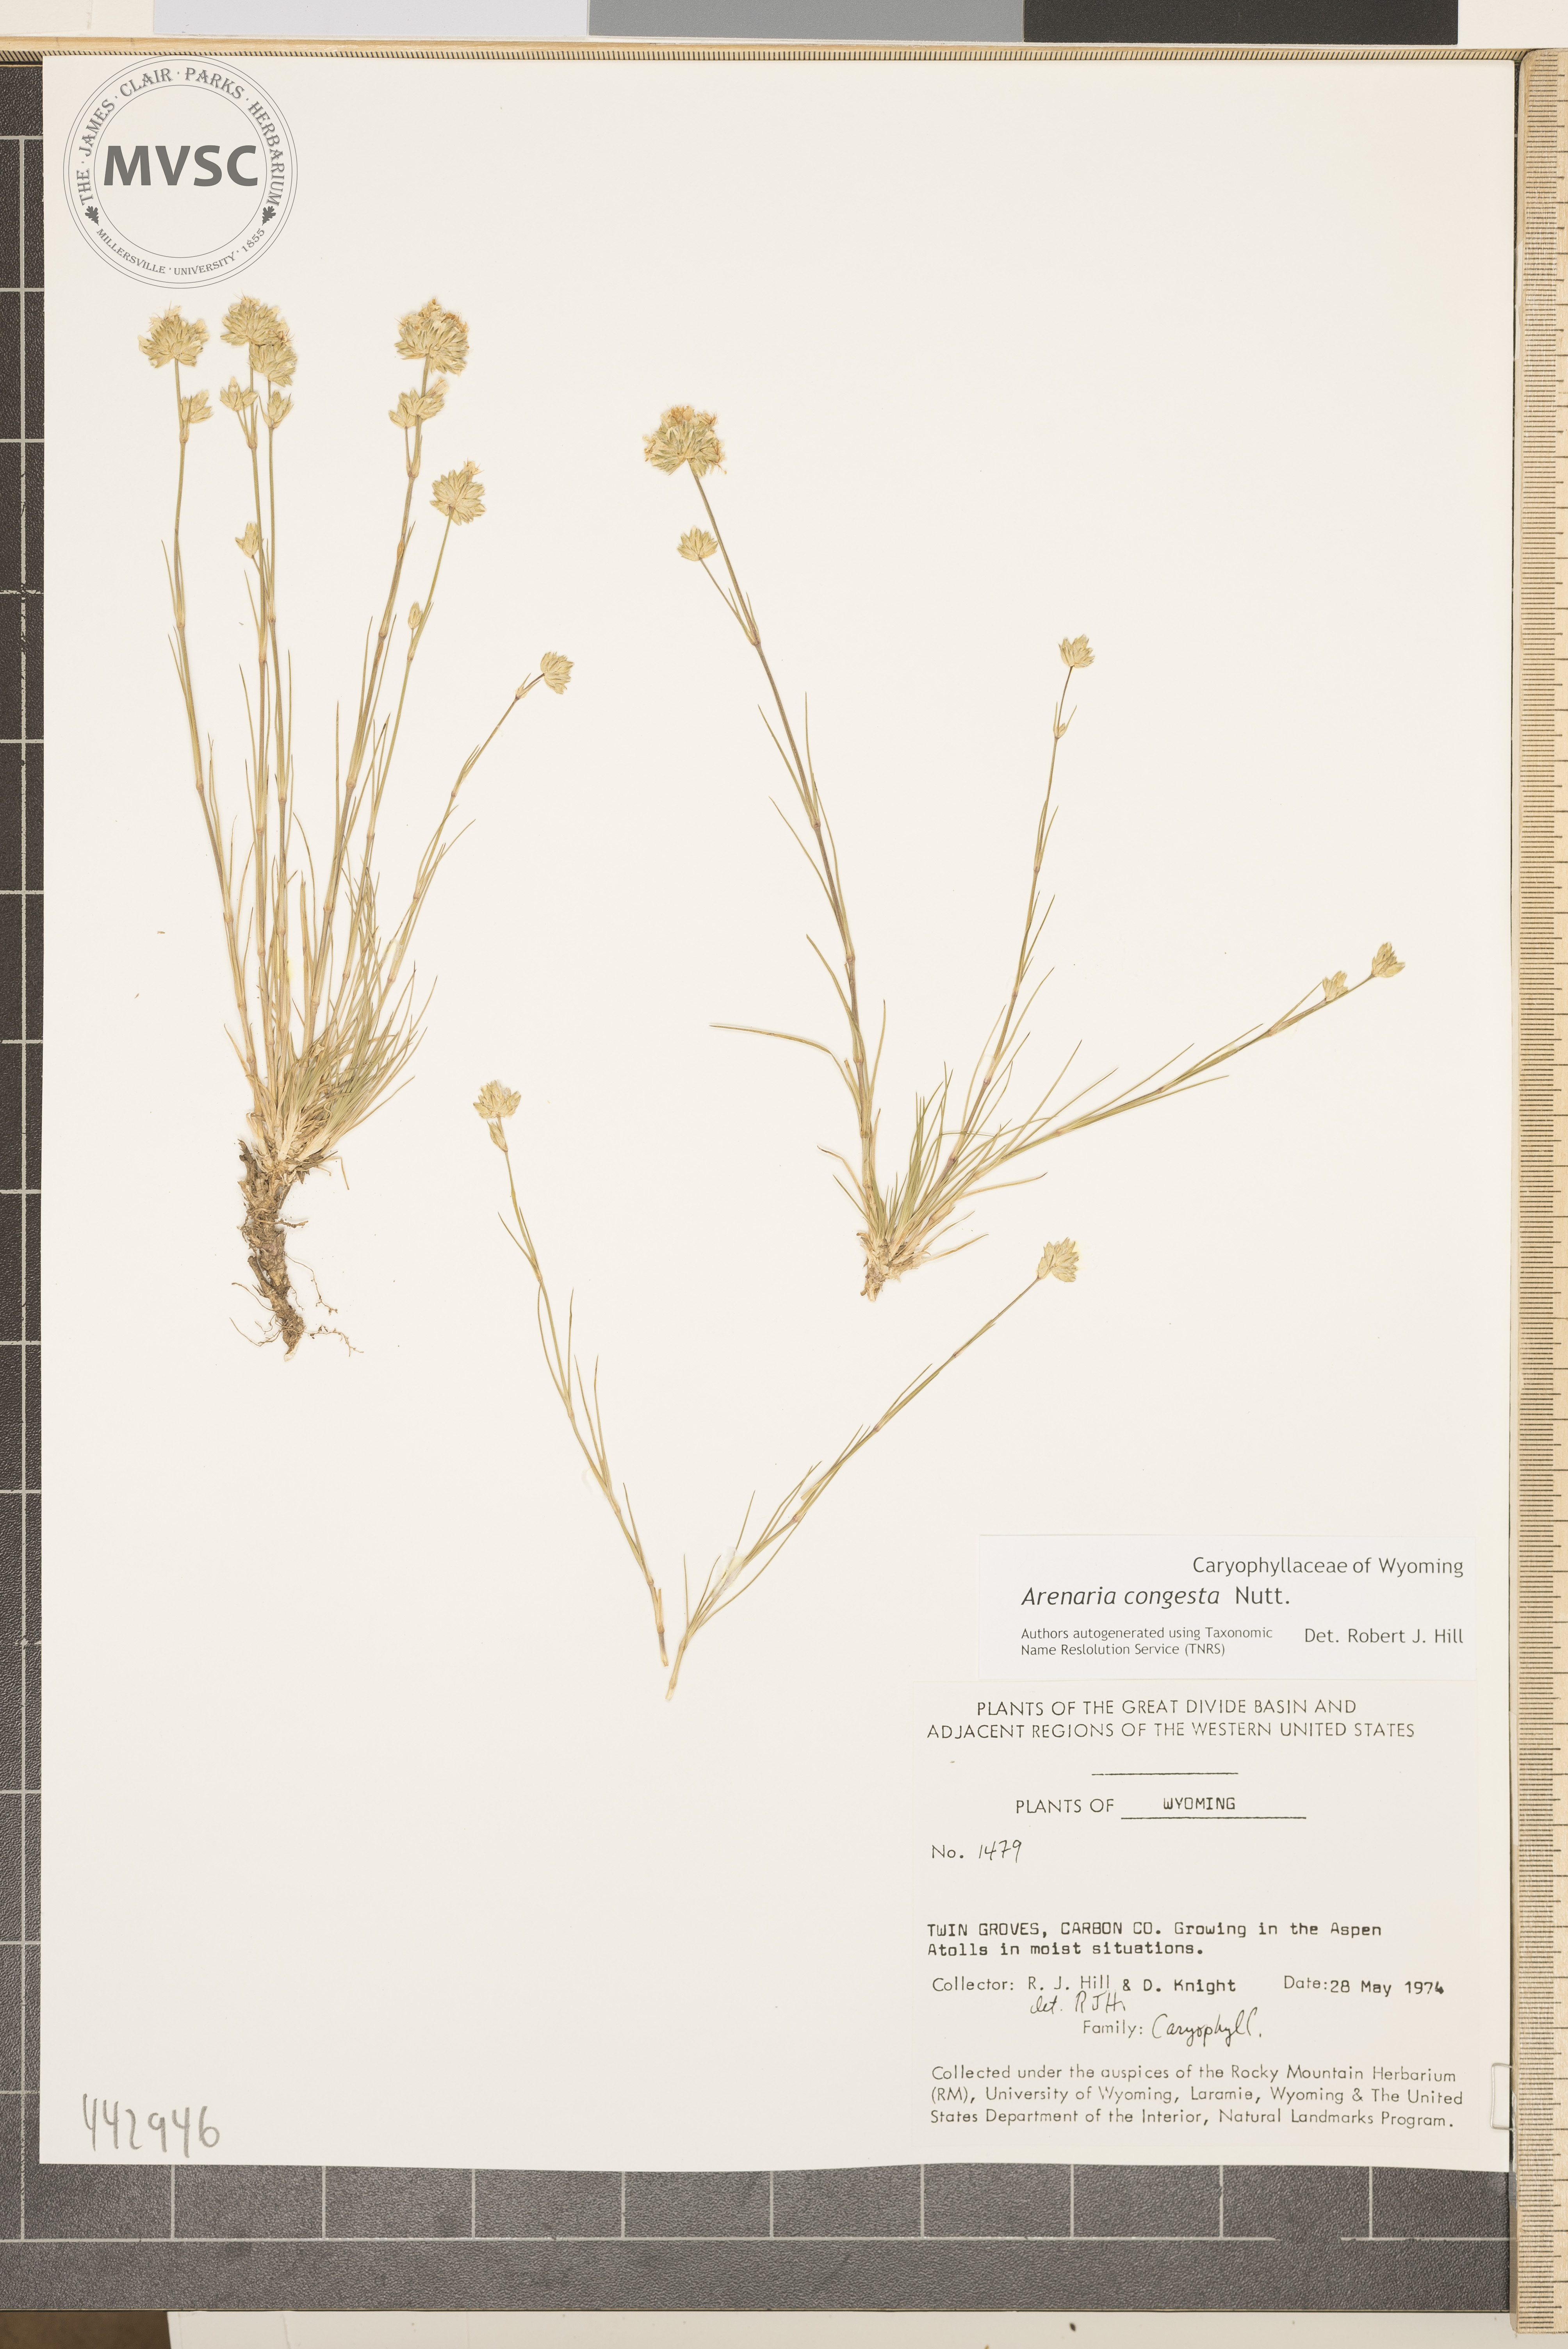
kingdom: Plantae
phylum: Tracheophyta
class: Magnoliopsida
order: Caryophyllales
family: Caryophyllaceae
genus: Eremogone
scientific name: Eremogone congesta
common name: Ballhead sandwort
